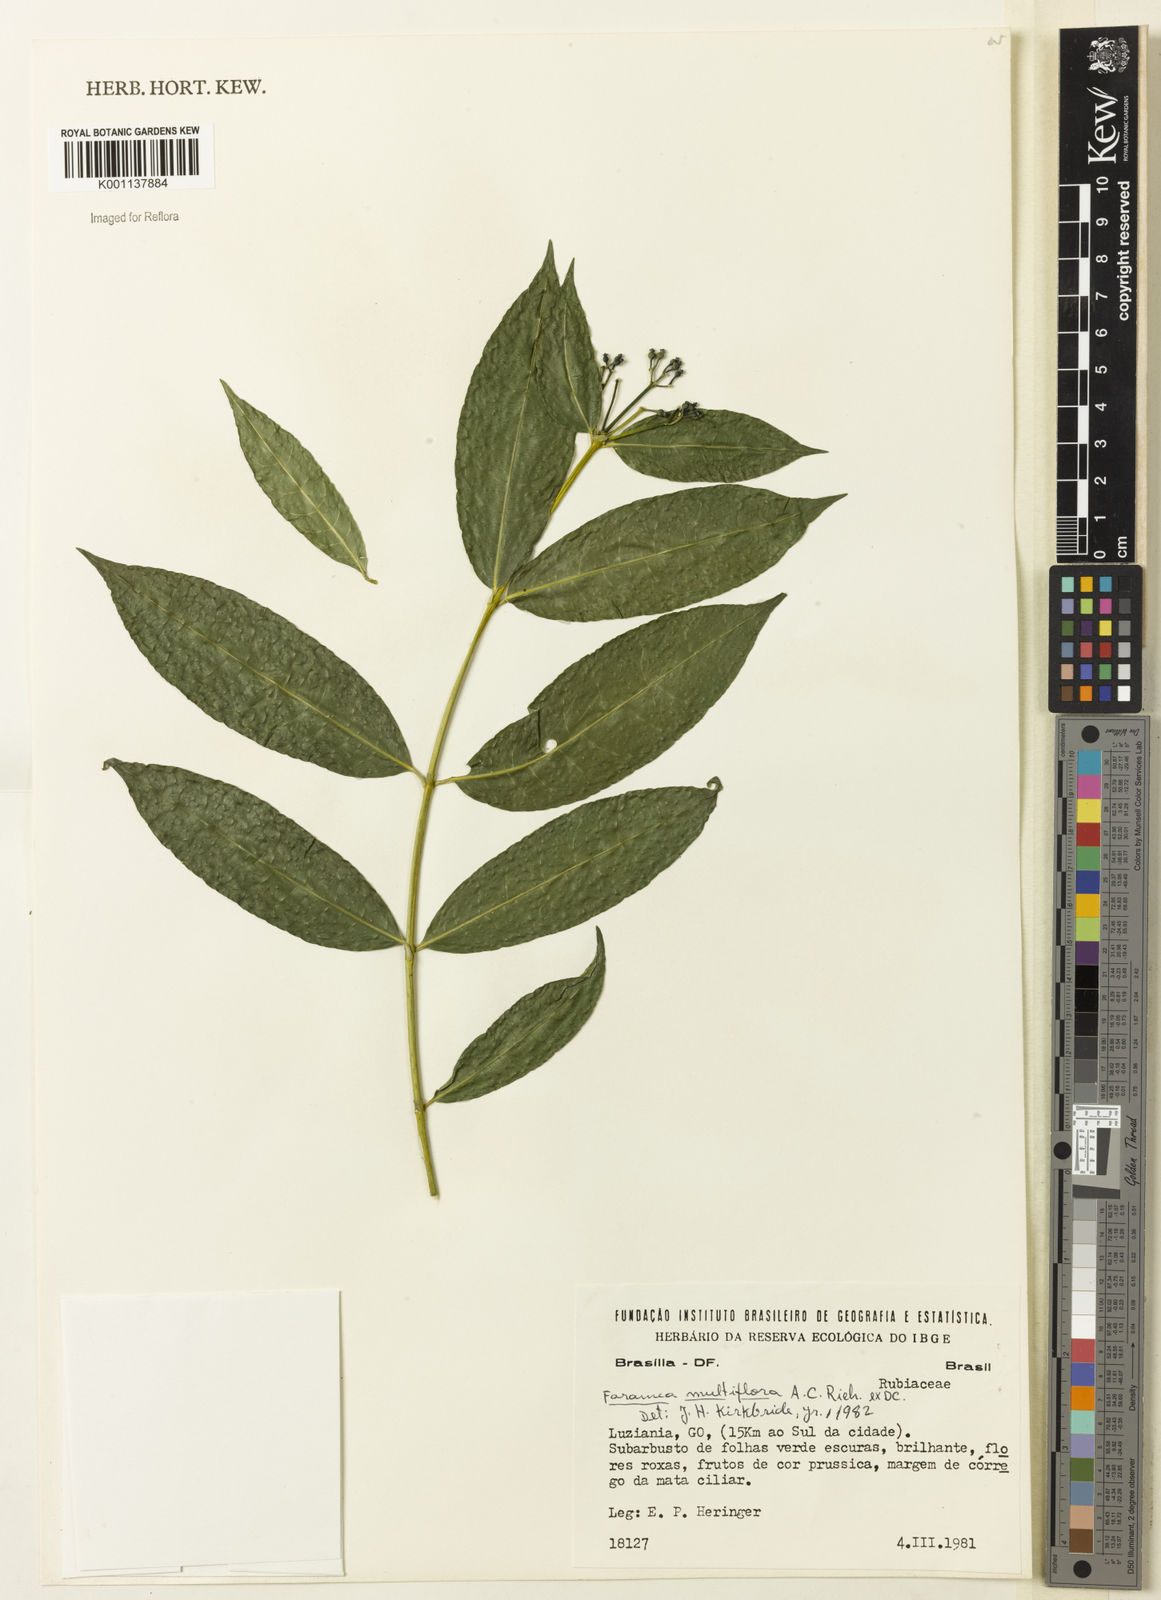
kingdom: Plantae
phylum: Tracheophyta
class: Magnoliopsida
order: Gentianales
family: Rubiaceae
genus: Faramea
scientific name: Faramea multiflora
